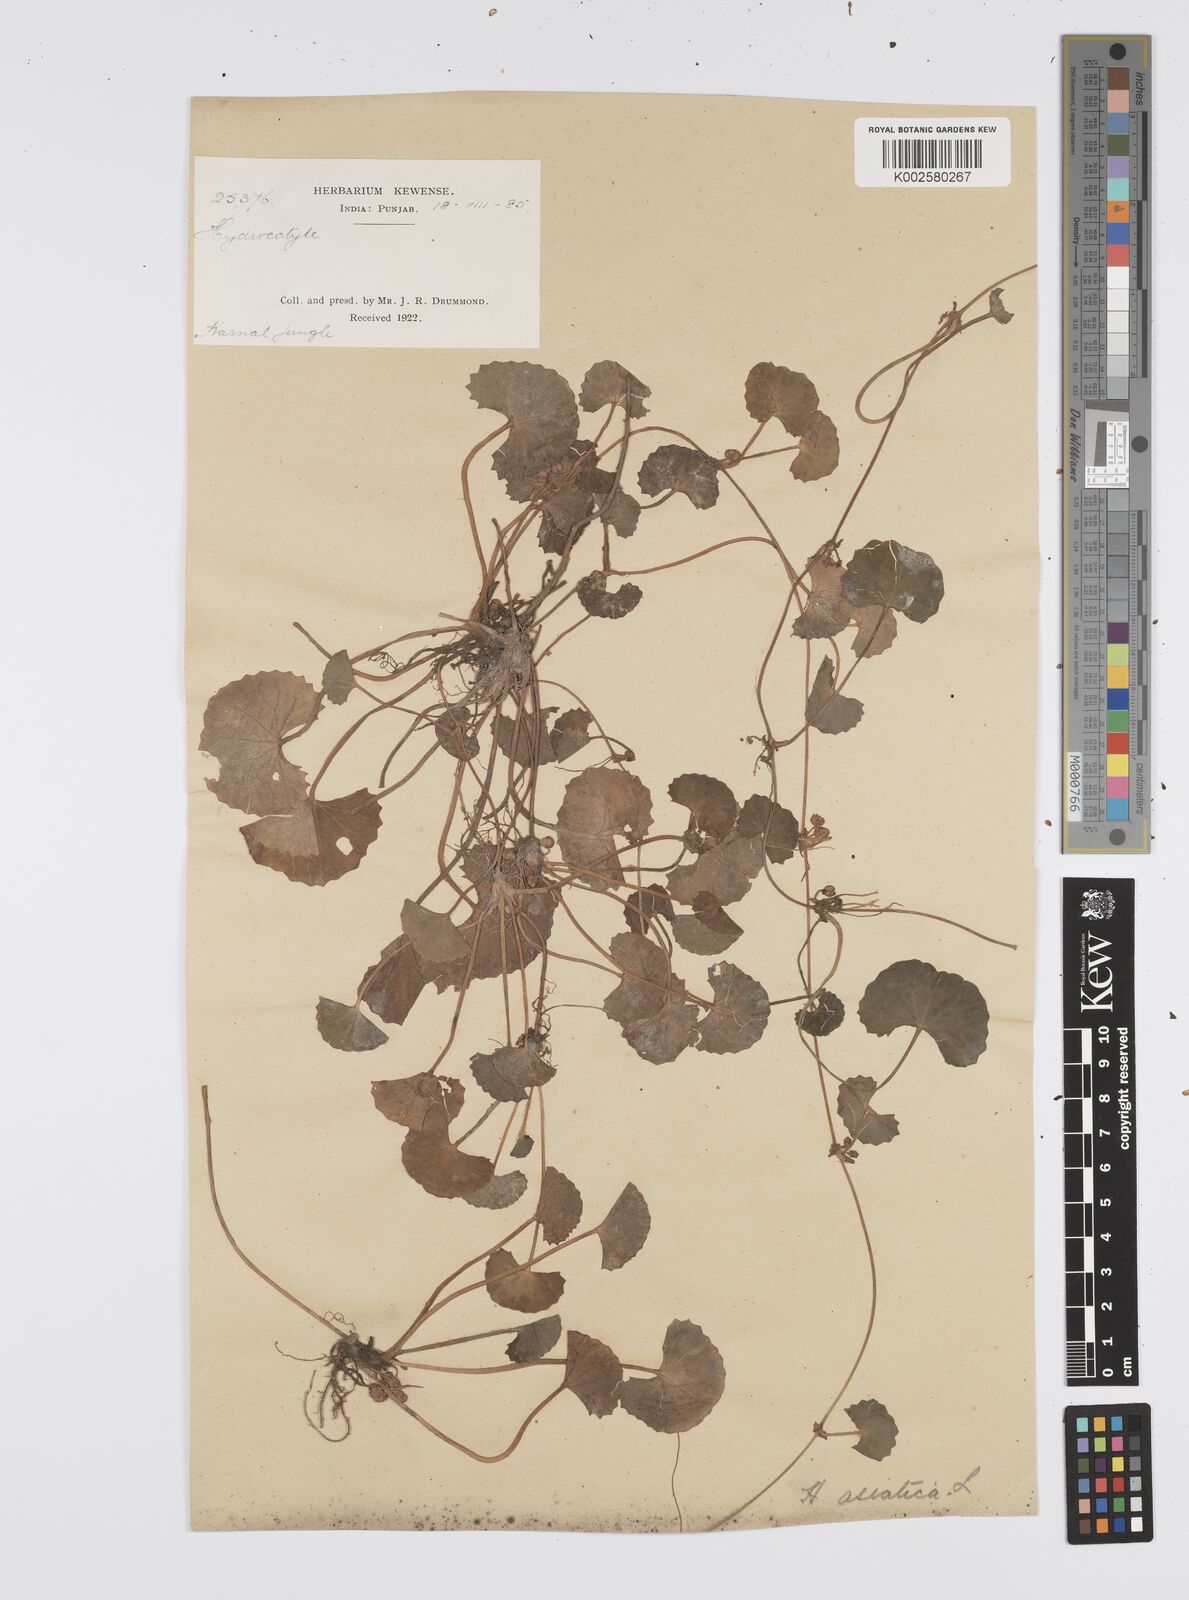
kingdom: Plantae
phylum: Tracheophyta
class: Magnoliopsida
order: Apiales
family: Apiaceae
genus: Centella
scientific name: Centella asiatica
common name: Spadeleaf
